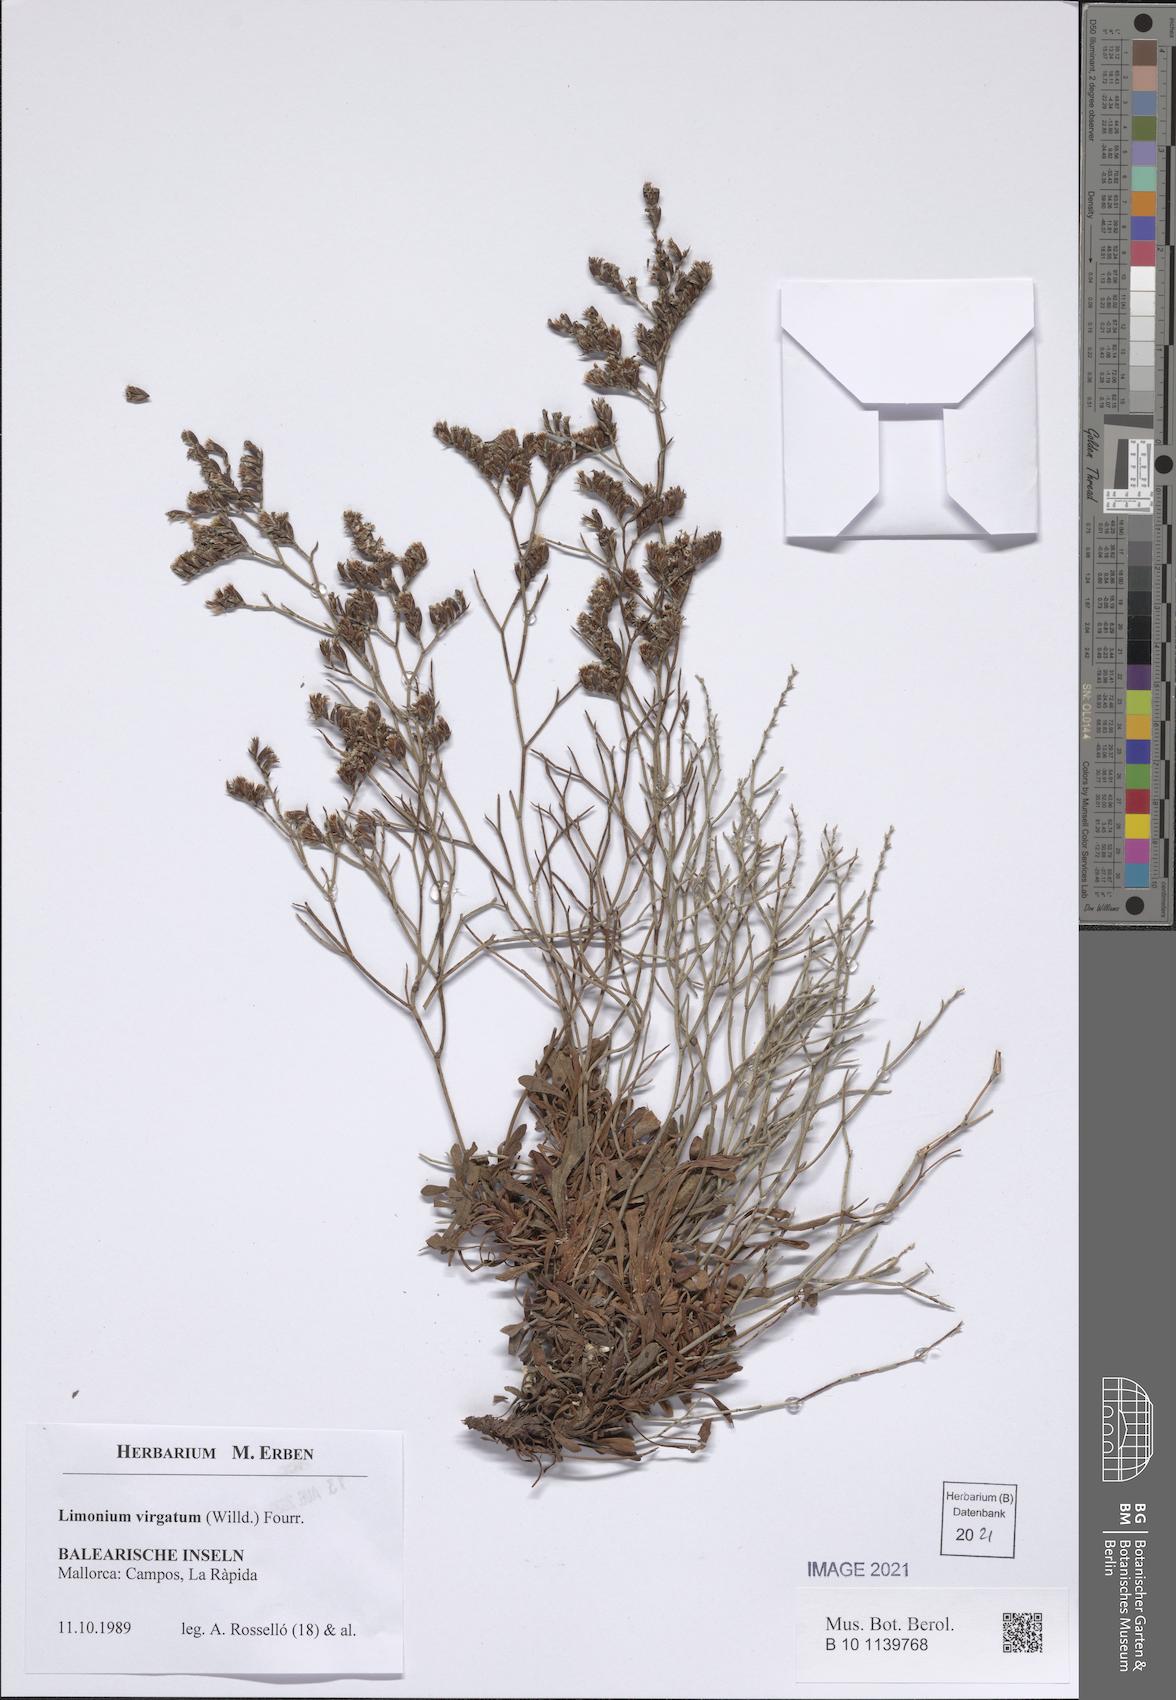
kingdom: Plantae
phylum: Tracheophyta
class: Magnoliopsida
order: Caryophyllales
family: Plumbaginaceae
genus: Limonium
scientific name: Limonium virgatum
